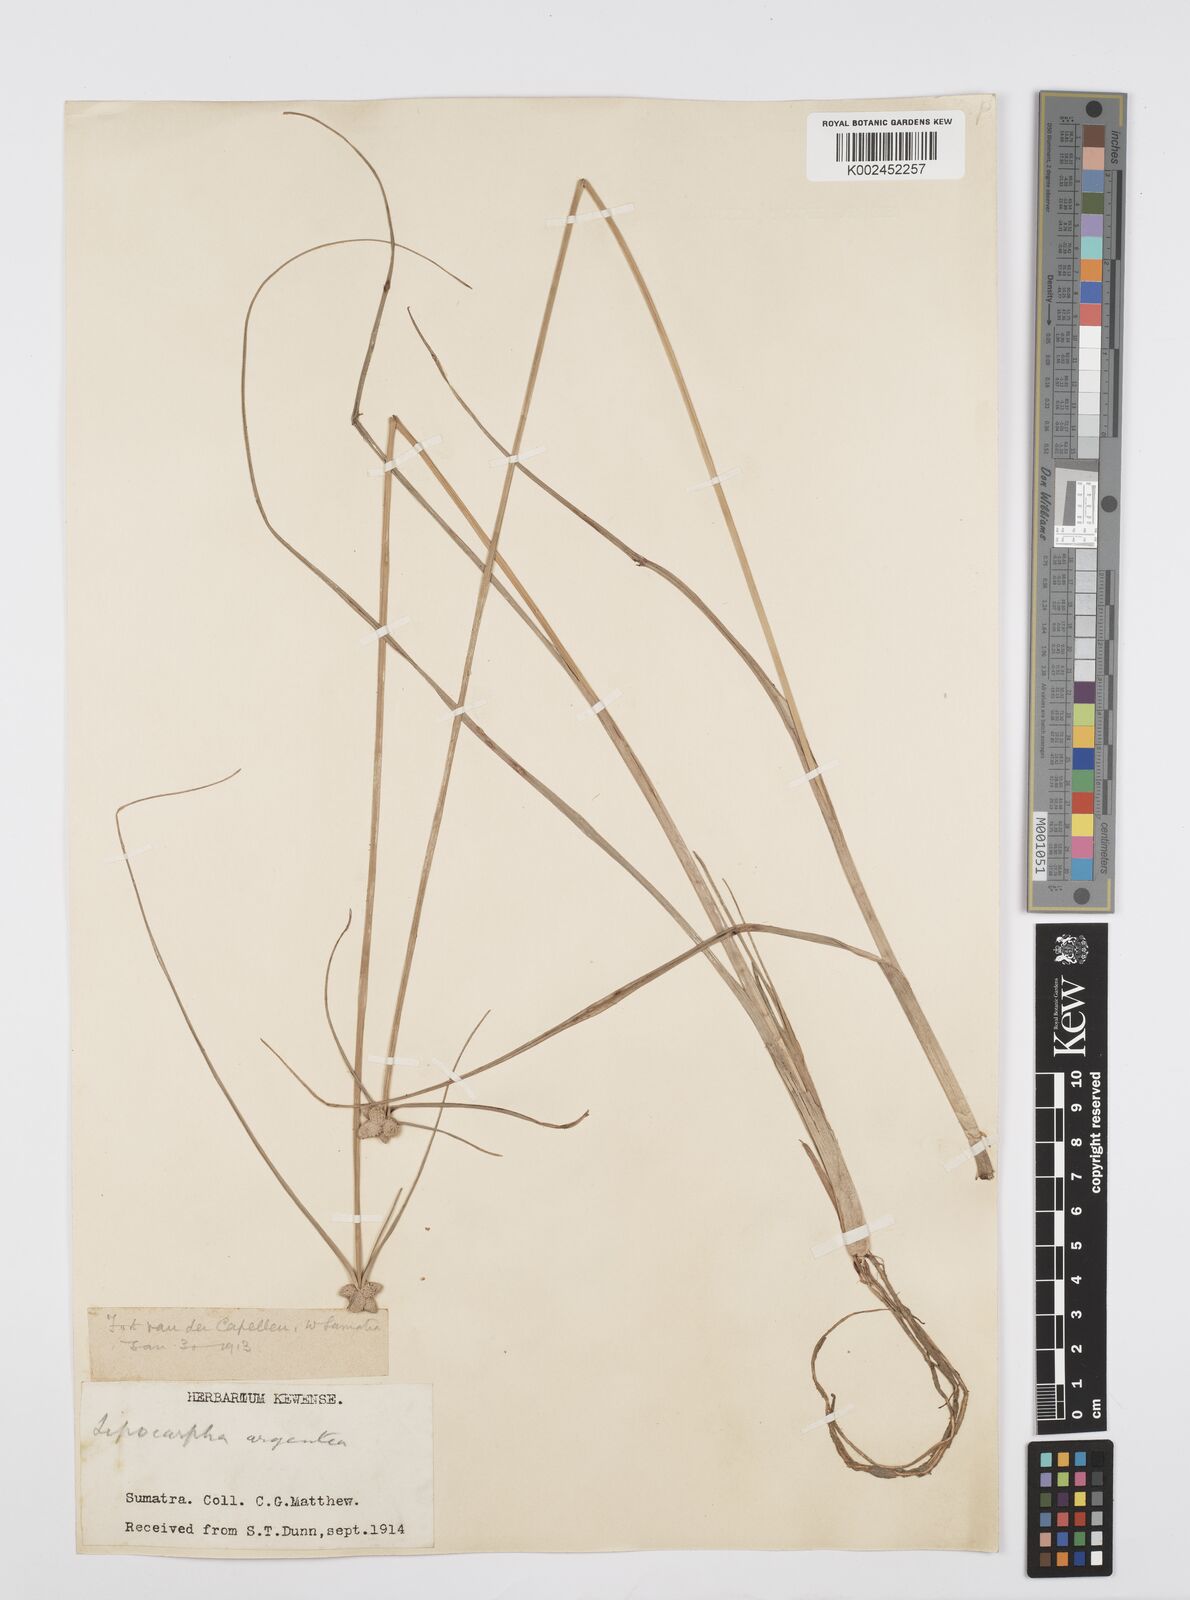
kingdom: Plantae
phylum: Tracheophyta
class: Liliopsida
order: Poales
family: Cyperaceae
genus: Cyperus
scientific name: Cyperus
